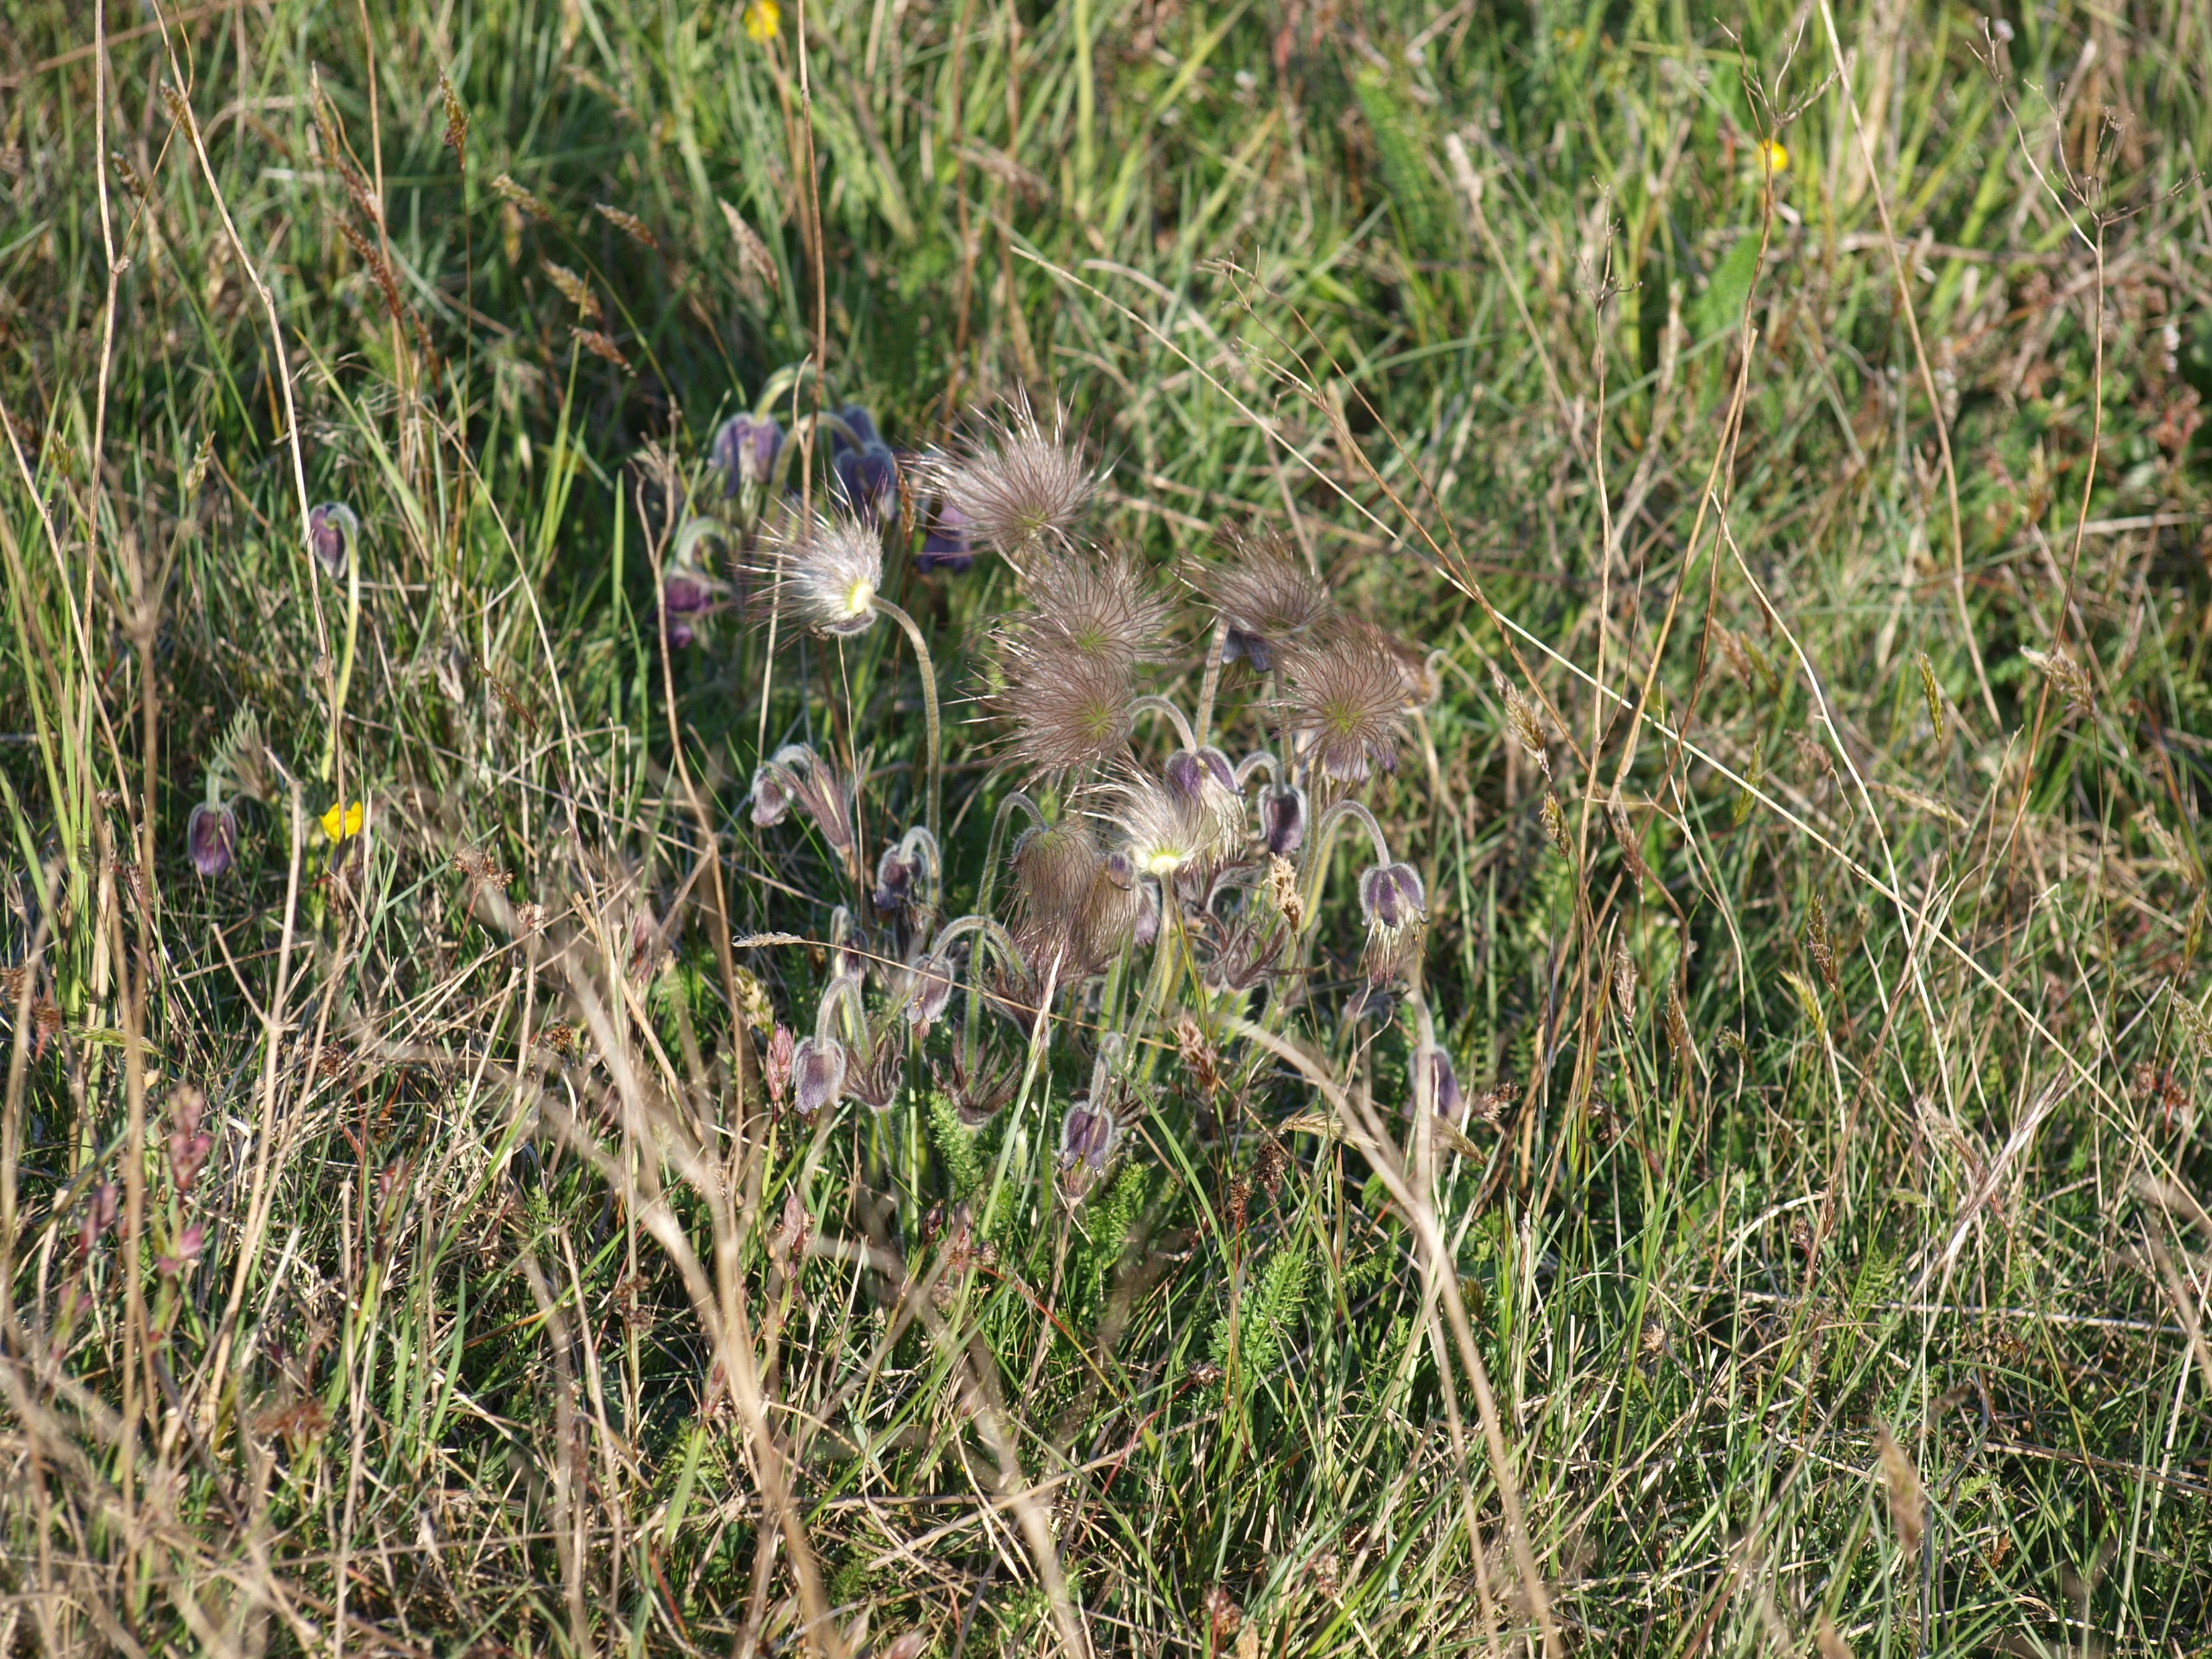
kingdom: Plantae
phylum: Tracheophyta
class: Magnoliopsida
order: Ranunculales
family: Ranunculaceae
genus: Pulsatilla
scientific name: Pulsatilla pratensis
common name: Nikkende kobjælde
